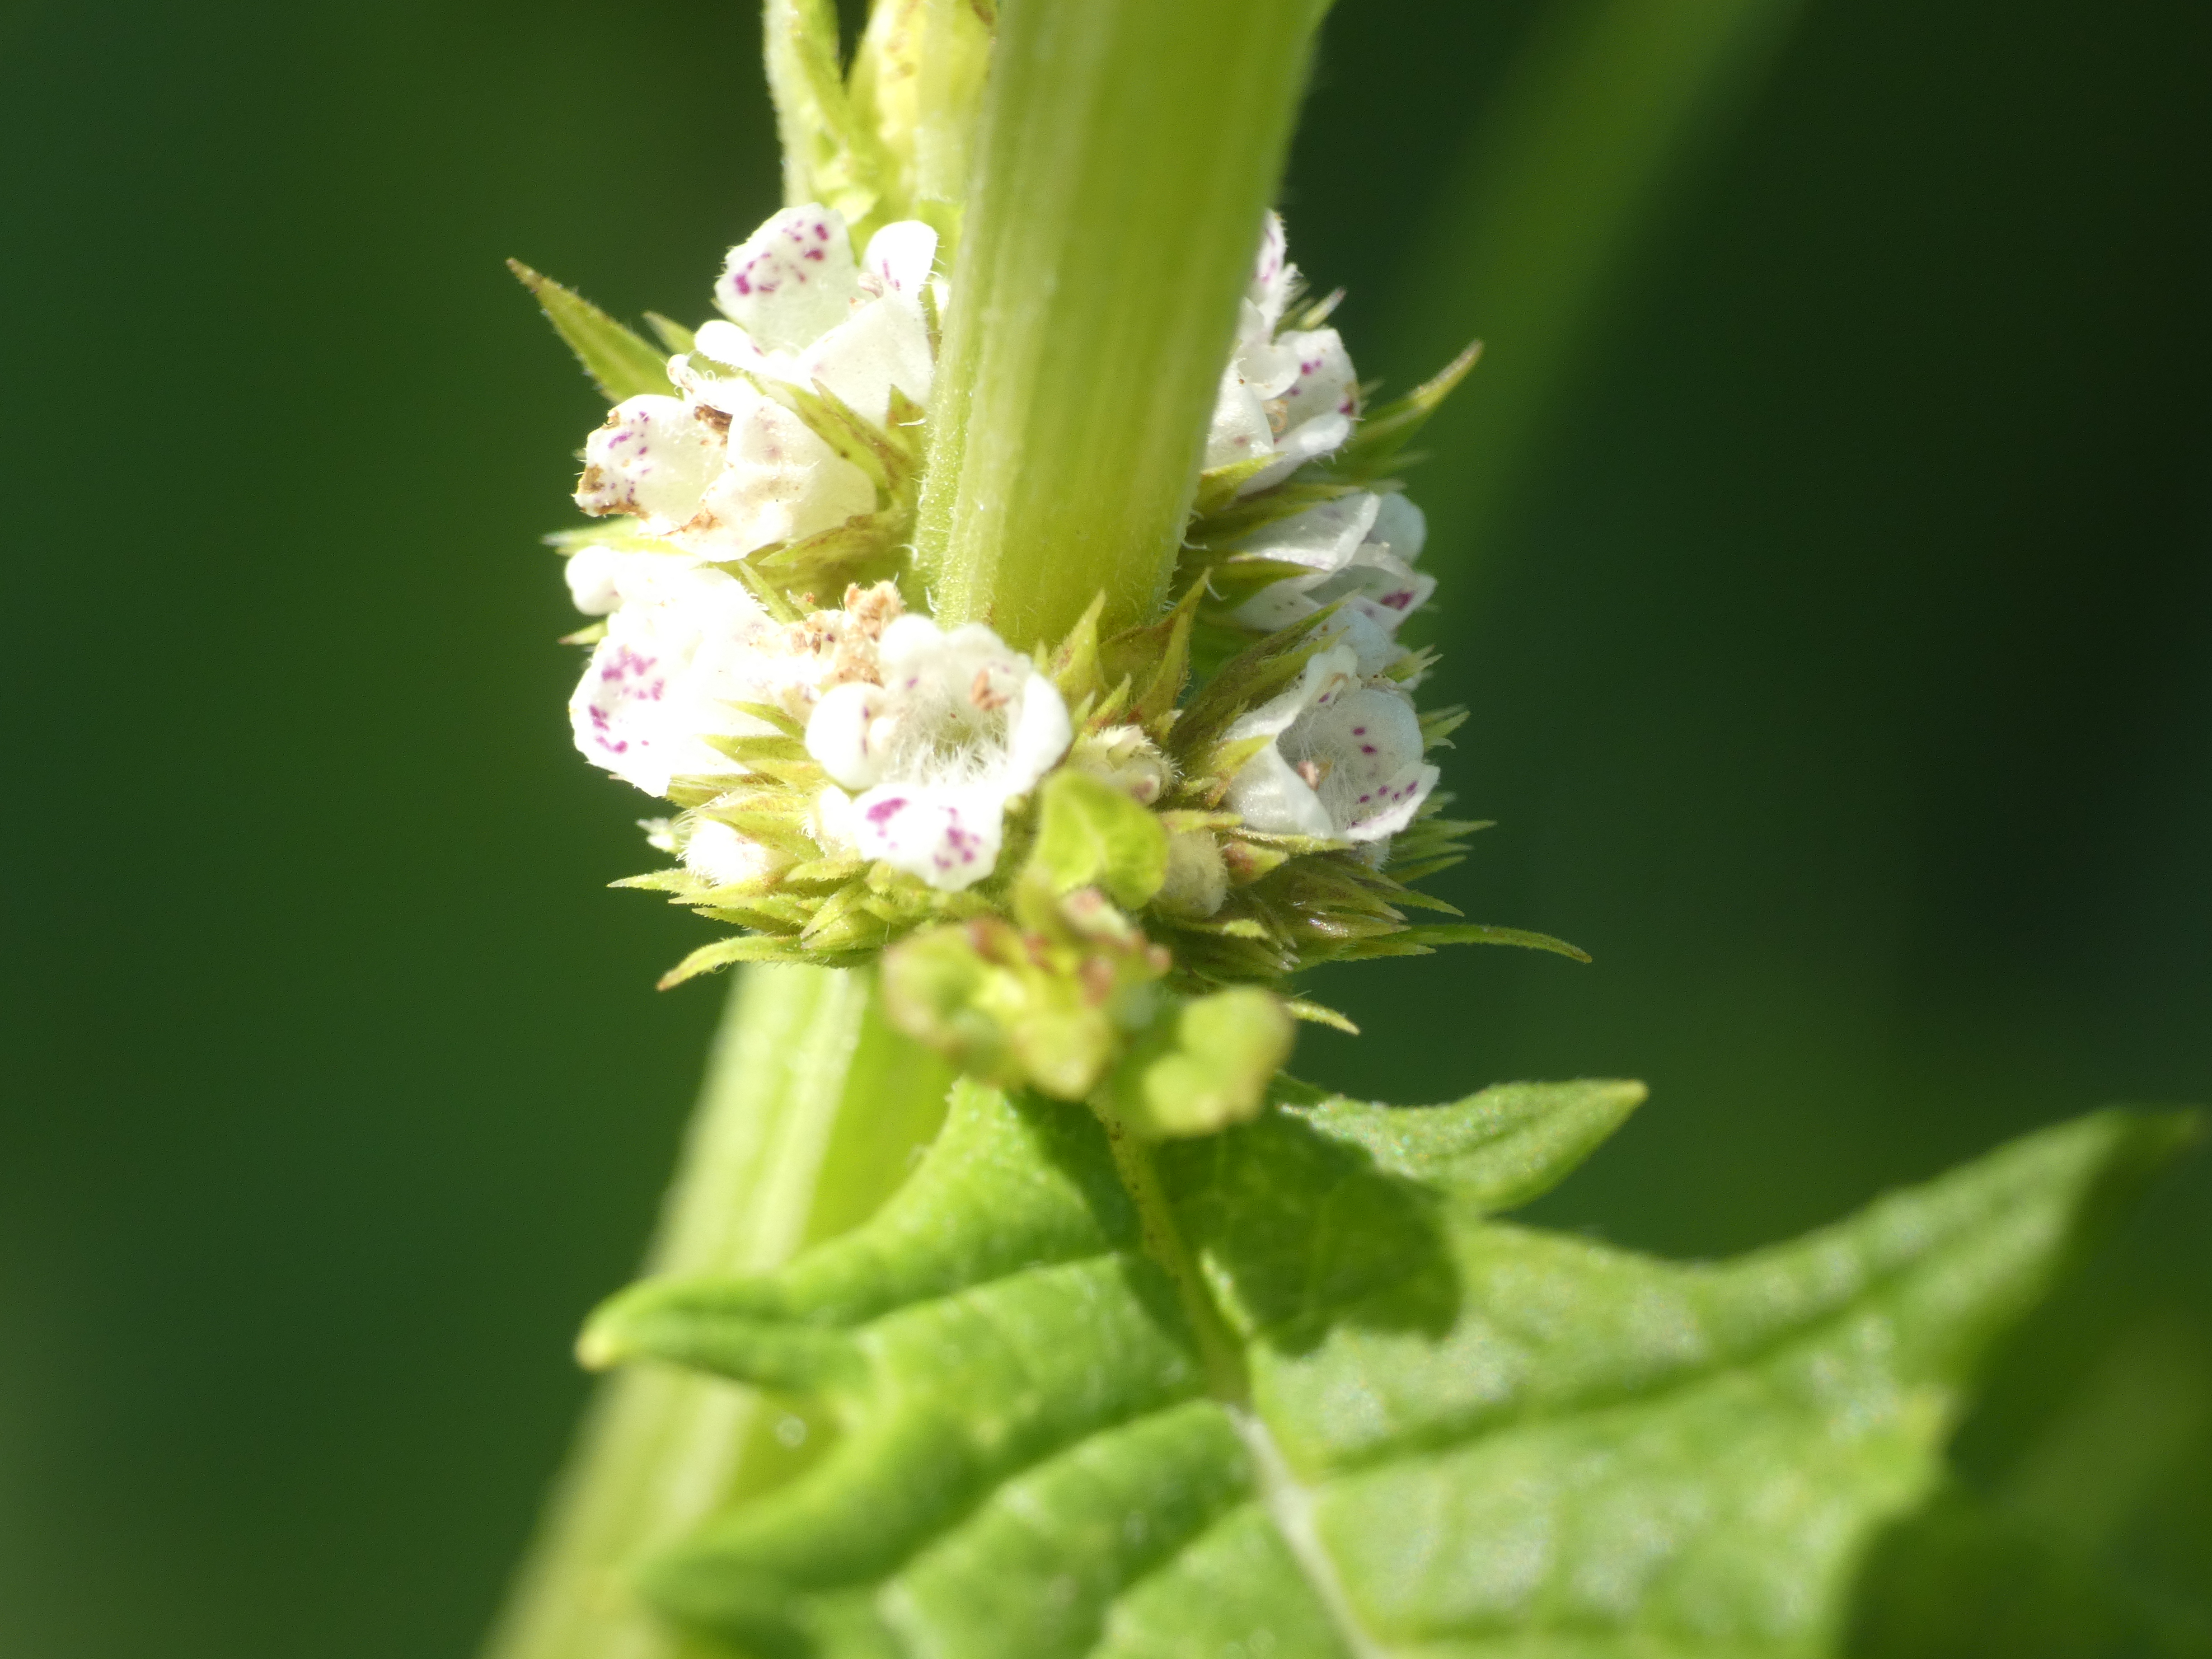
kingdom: Plantae
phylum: Tracheophyta
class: Magnoliopsida
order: Lamiales
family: Lamiaceae
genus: Lycopus
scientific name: Lycopus europaeus
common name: Sværtevæld
